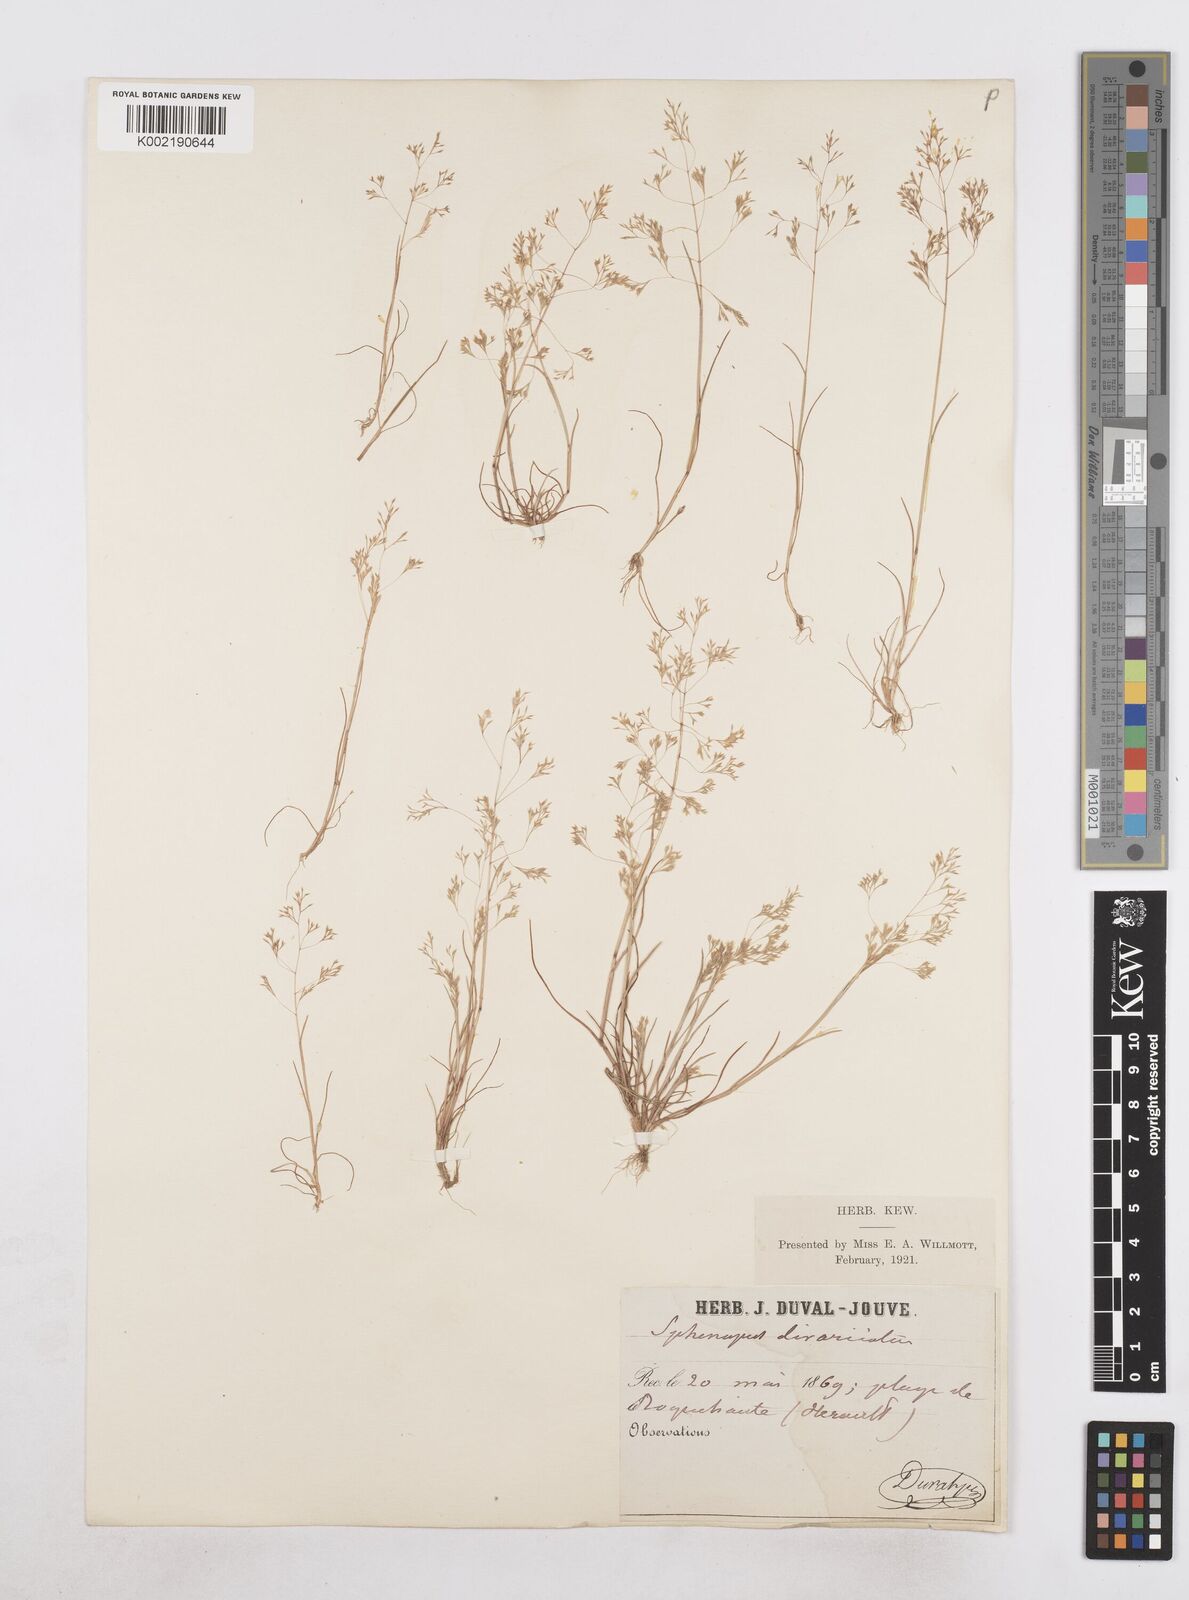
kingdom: Plantae
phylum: Tracheophyta
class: Liliopsida
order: Poales
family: Poaceae
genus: Sphenopus
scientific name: Sphenopus divaricatus
